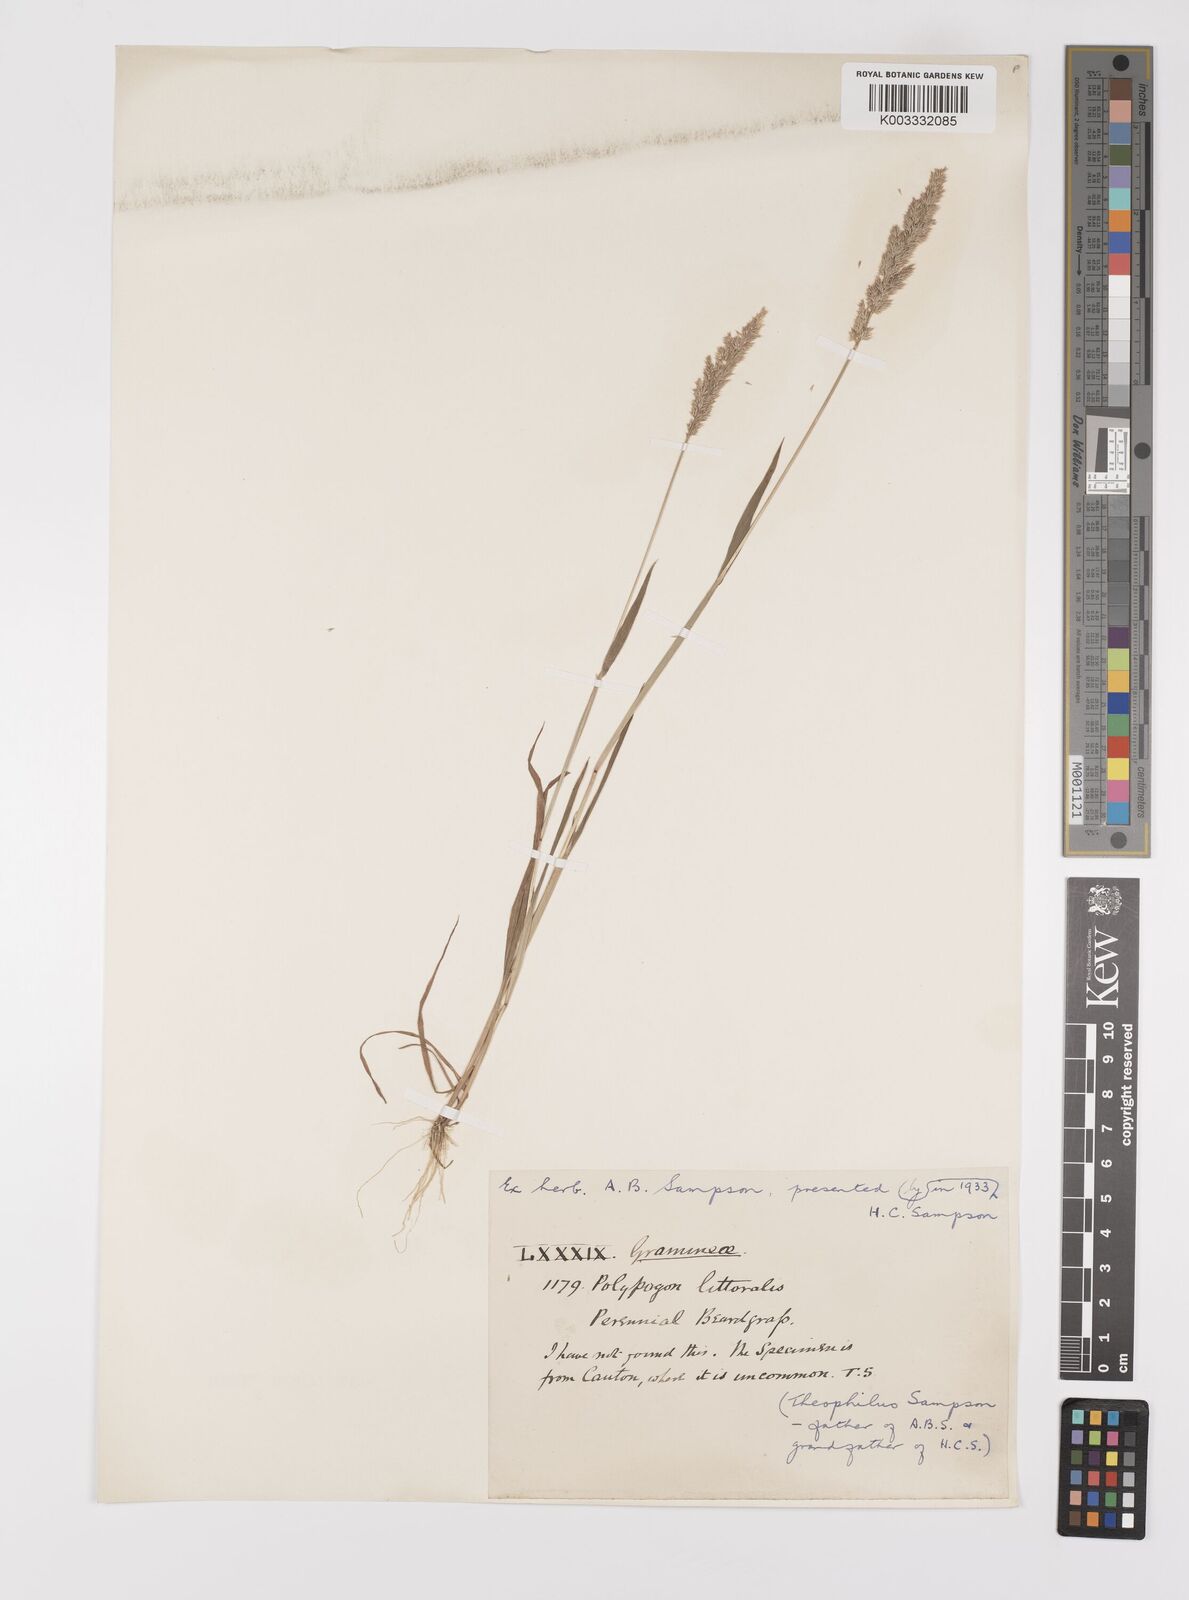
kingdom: Plantae
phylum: Tracheophyta
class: Liliopsida
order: Poales
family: Poaceae
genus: Polypogon
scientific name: Polypogon fugax
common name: Asia minor bluegrass
